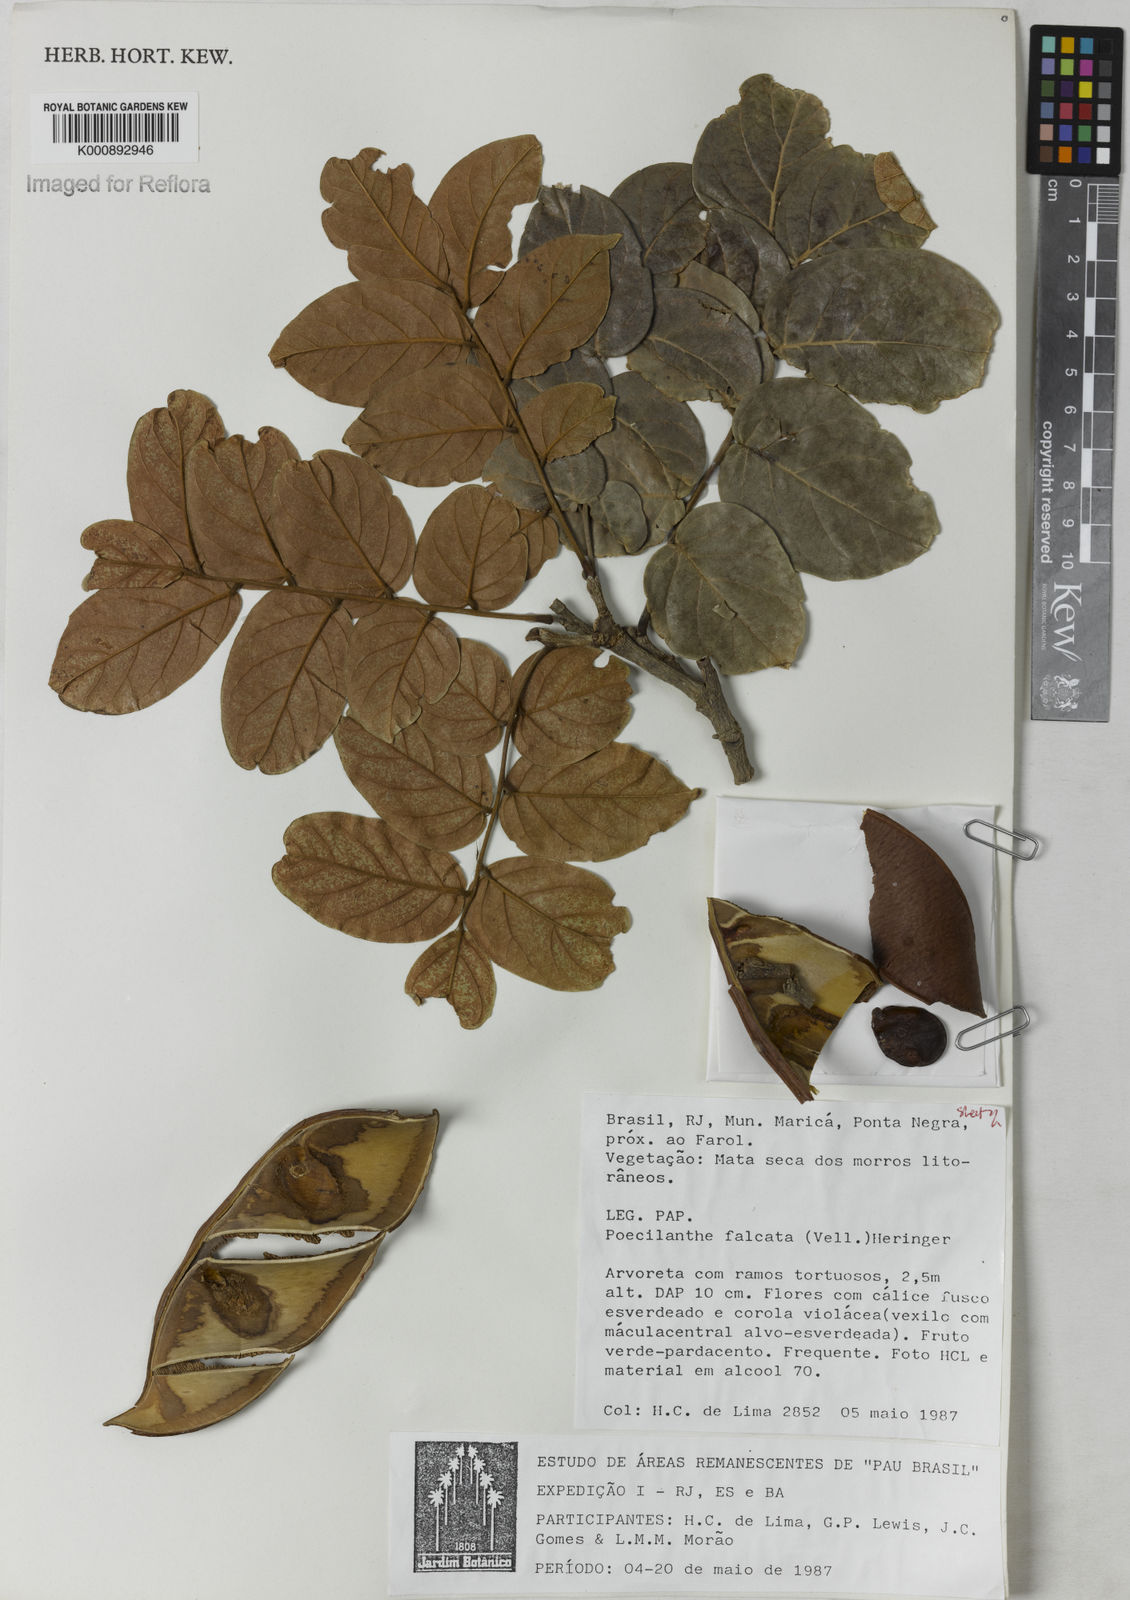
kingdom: Plantae
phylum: Tracheophyta
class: Magnoliopsida
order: Fabales
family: Fabaceae
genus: Poecilanthe
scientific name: Poecilanthe falcata
